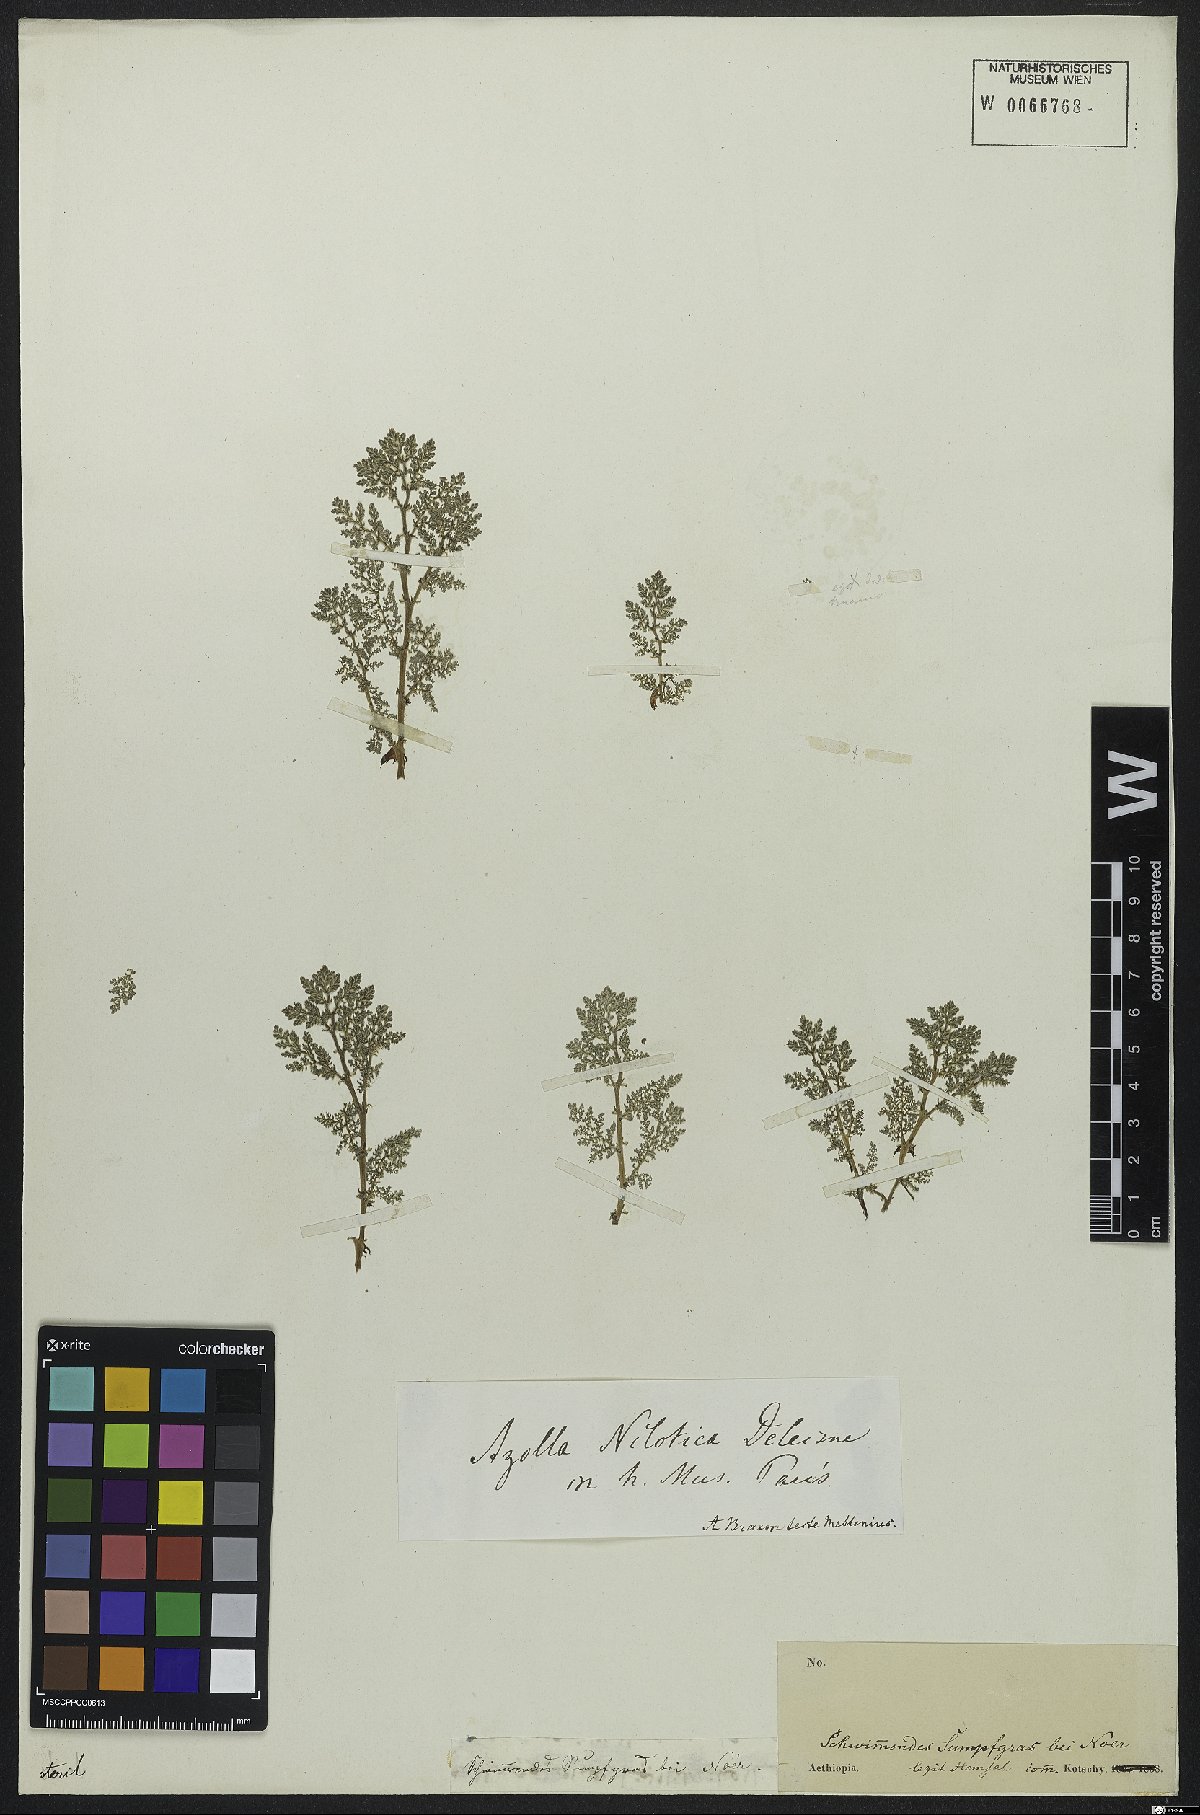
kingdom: Plantae
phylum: Tracheophyta
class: Polypodiopsida
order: Salviniales
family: Salviniaceae
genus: Azolla
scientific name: Azolla nilotica
